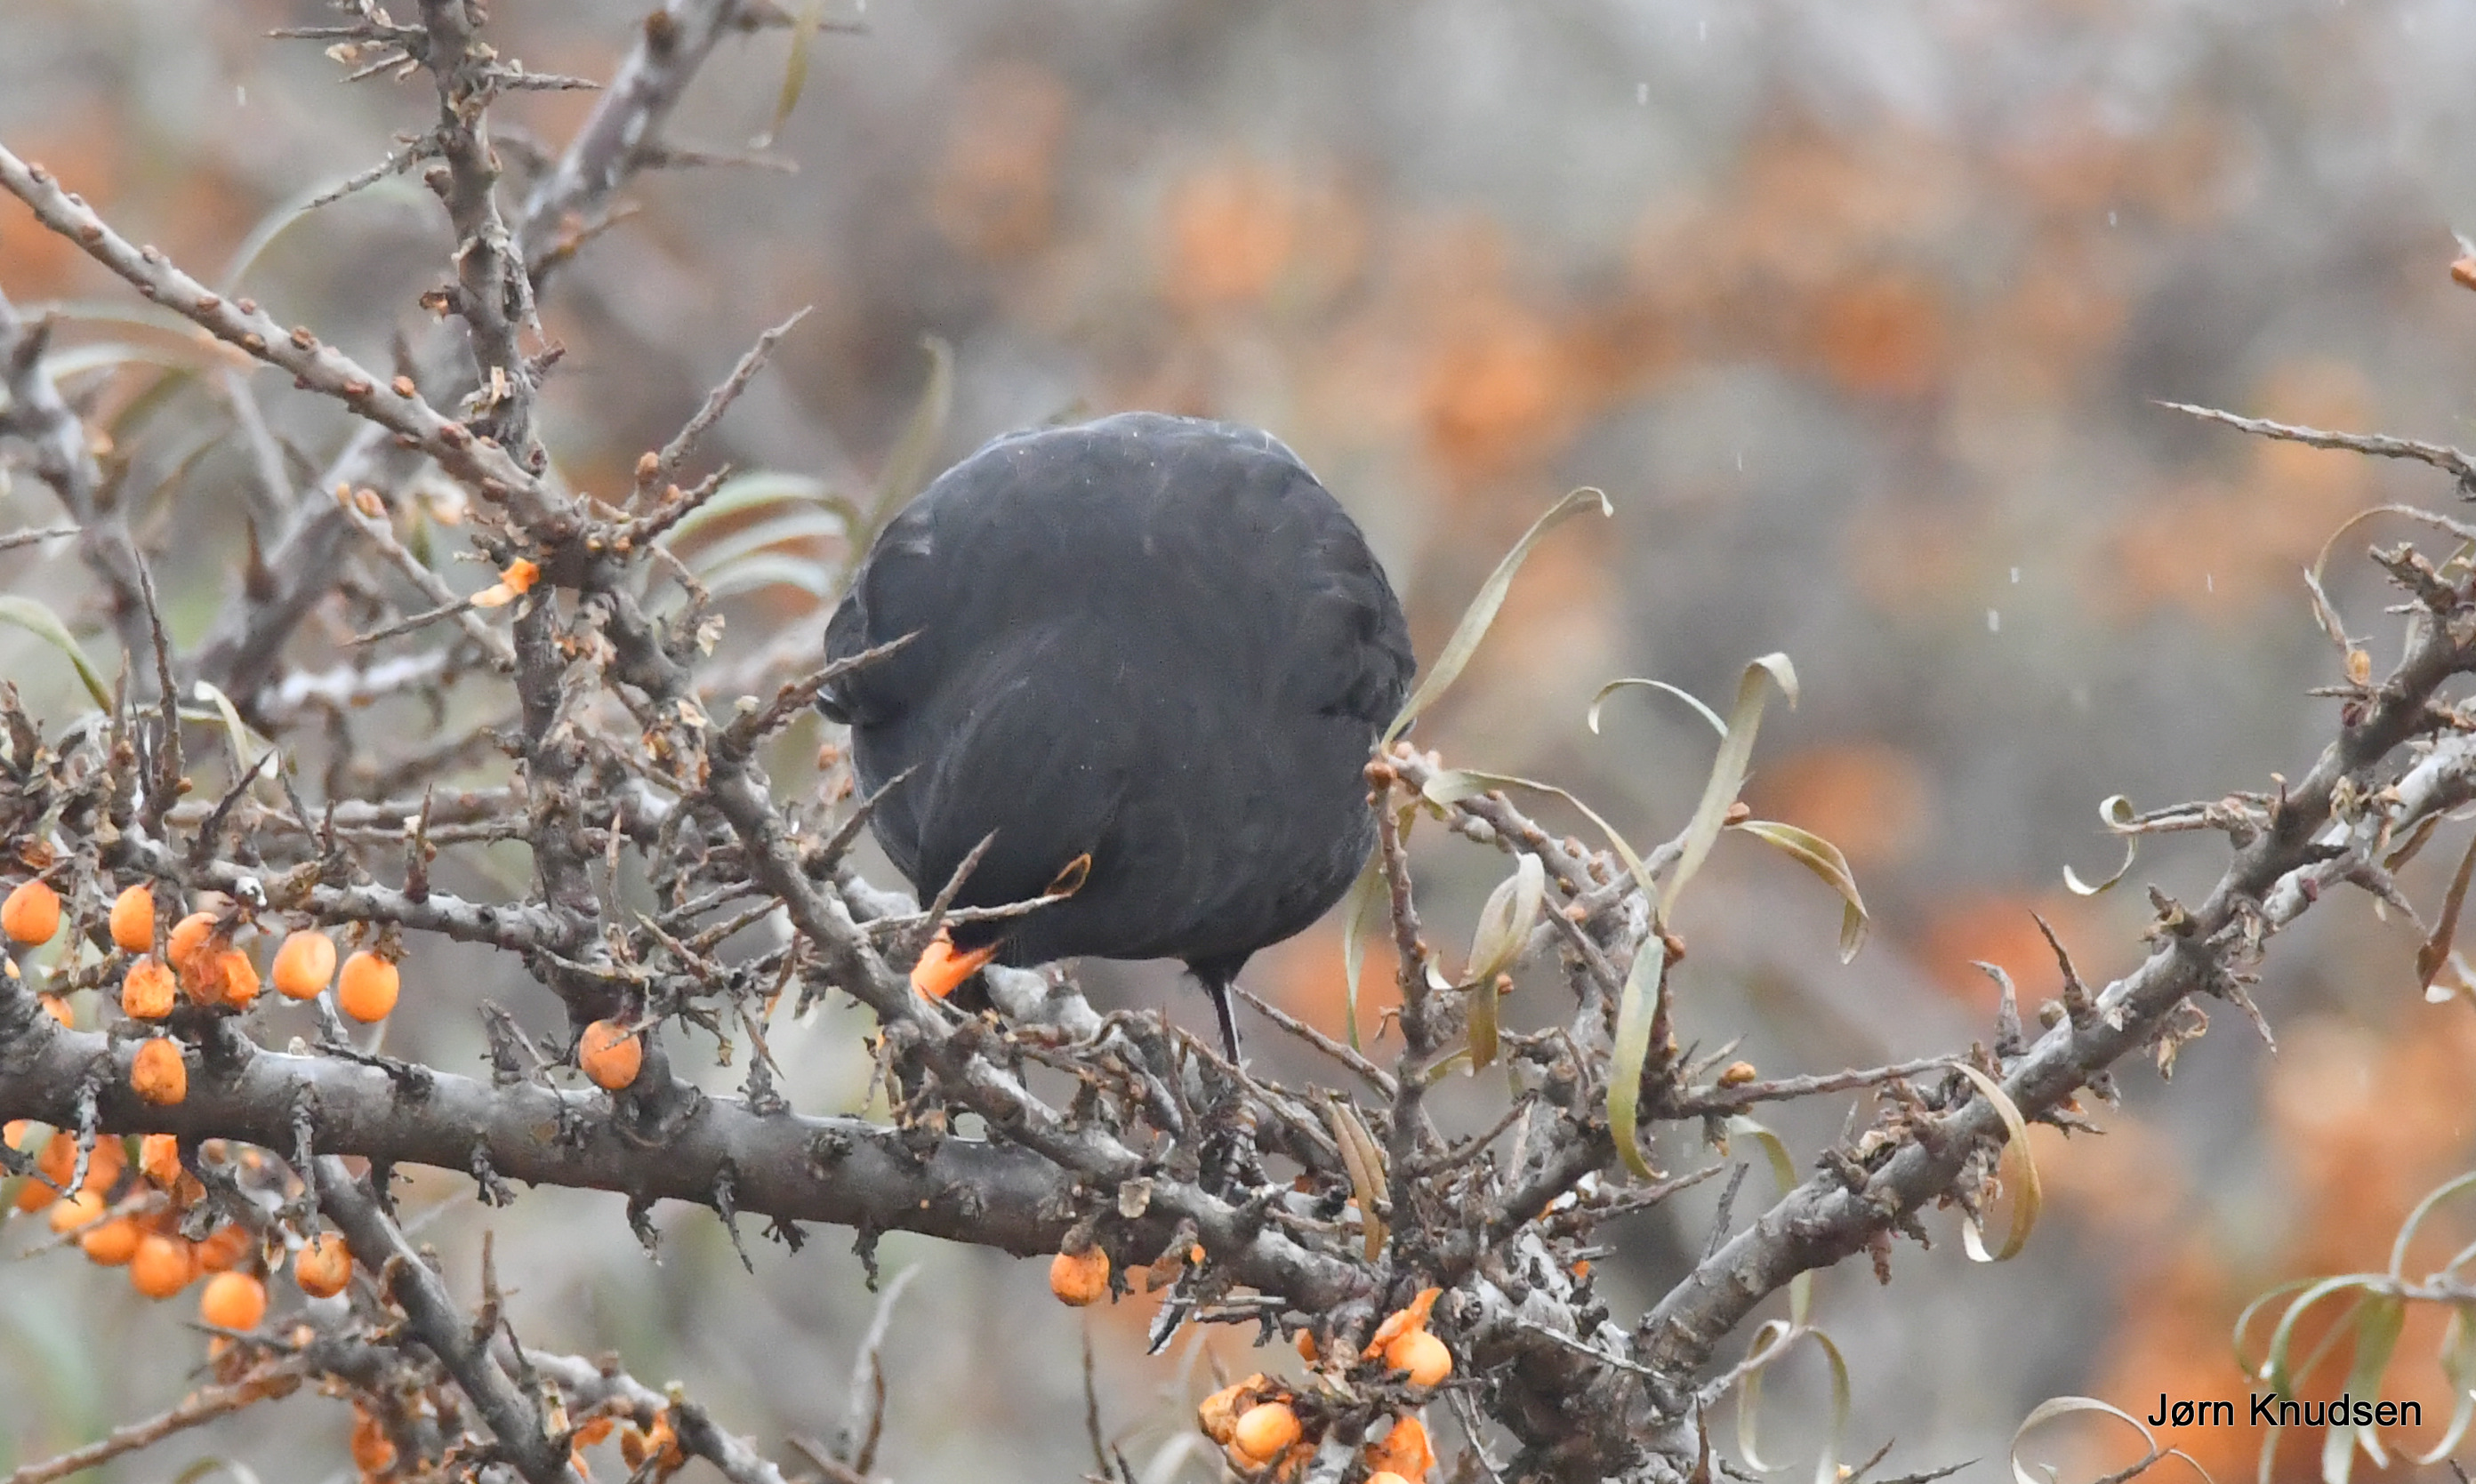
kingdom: Animalia
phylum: Chordata
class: Aves
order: Passeriformes
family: Turdidae
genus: Turdus
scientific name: Turdus merula
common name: Solsort
